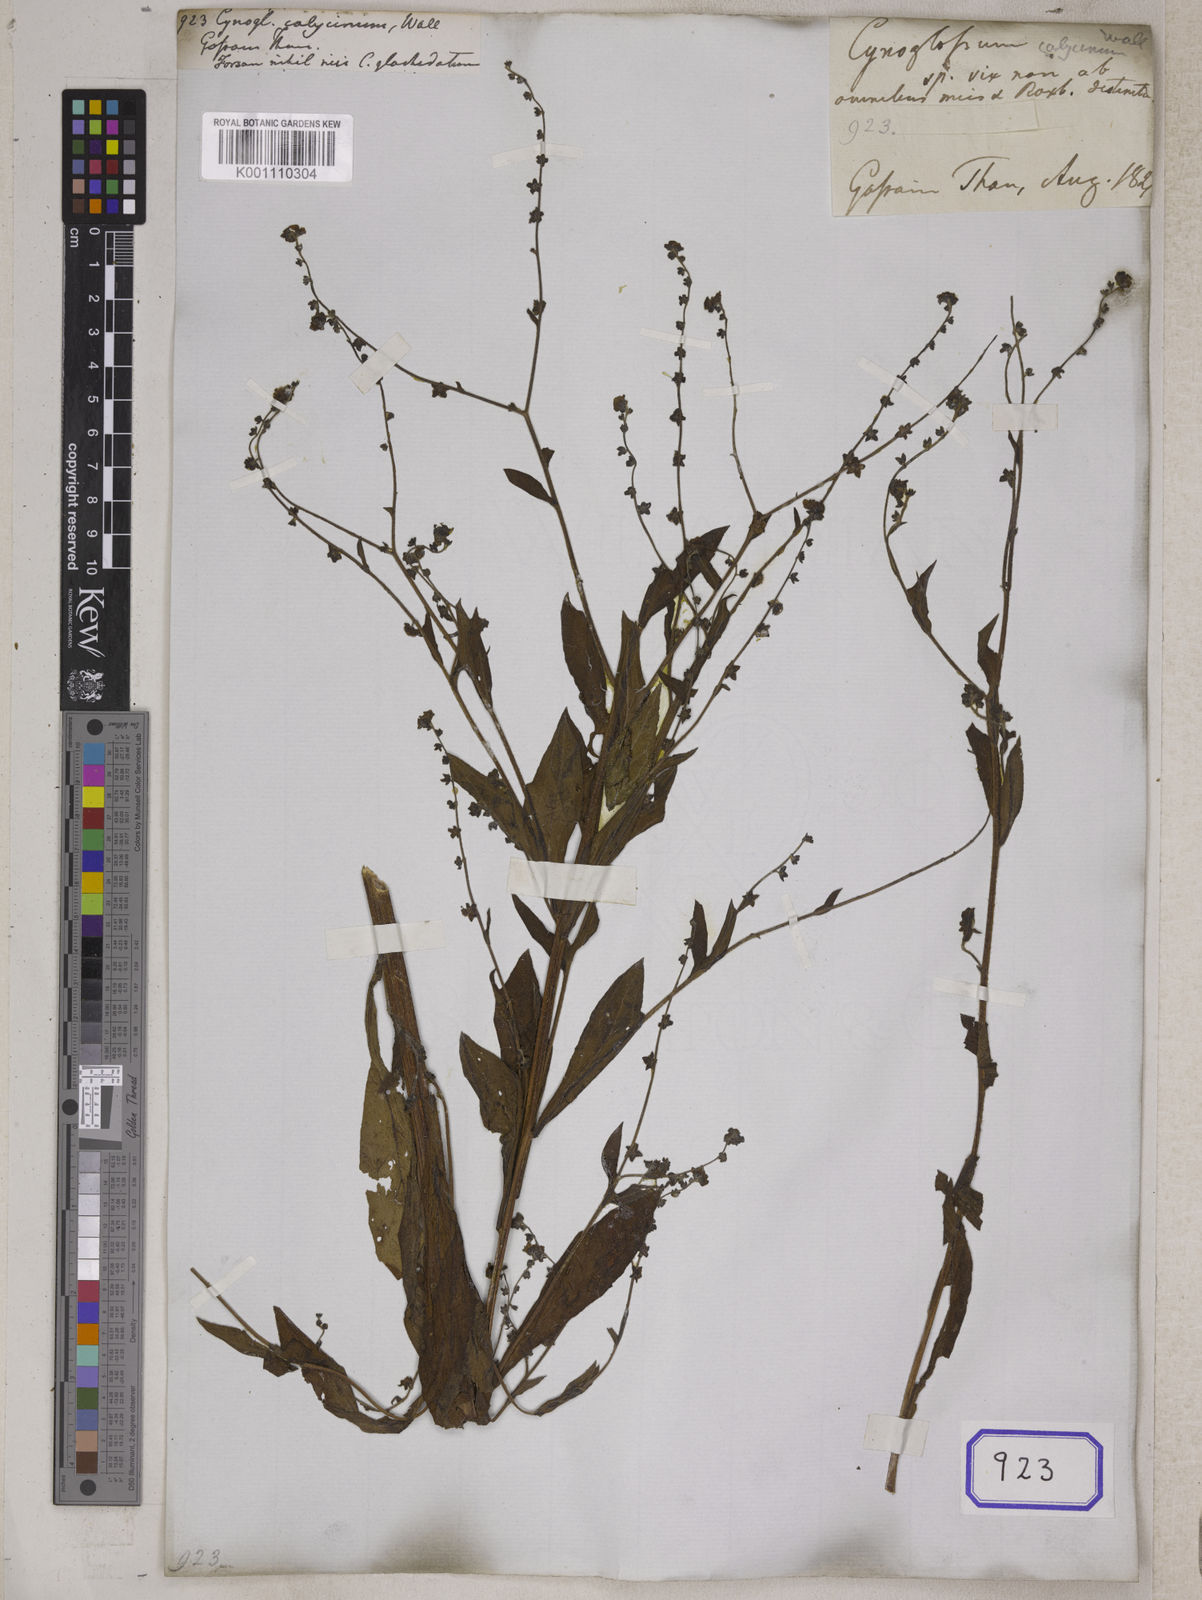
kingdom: Plantae
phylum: Tracheophyta
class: Magnoliopsida
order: Boraginales
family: Boraginaceae
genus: Cynoglossum
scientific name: Cynoglossum
